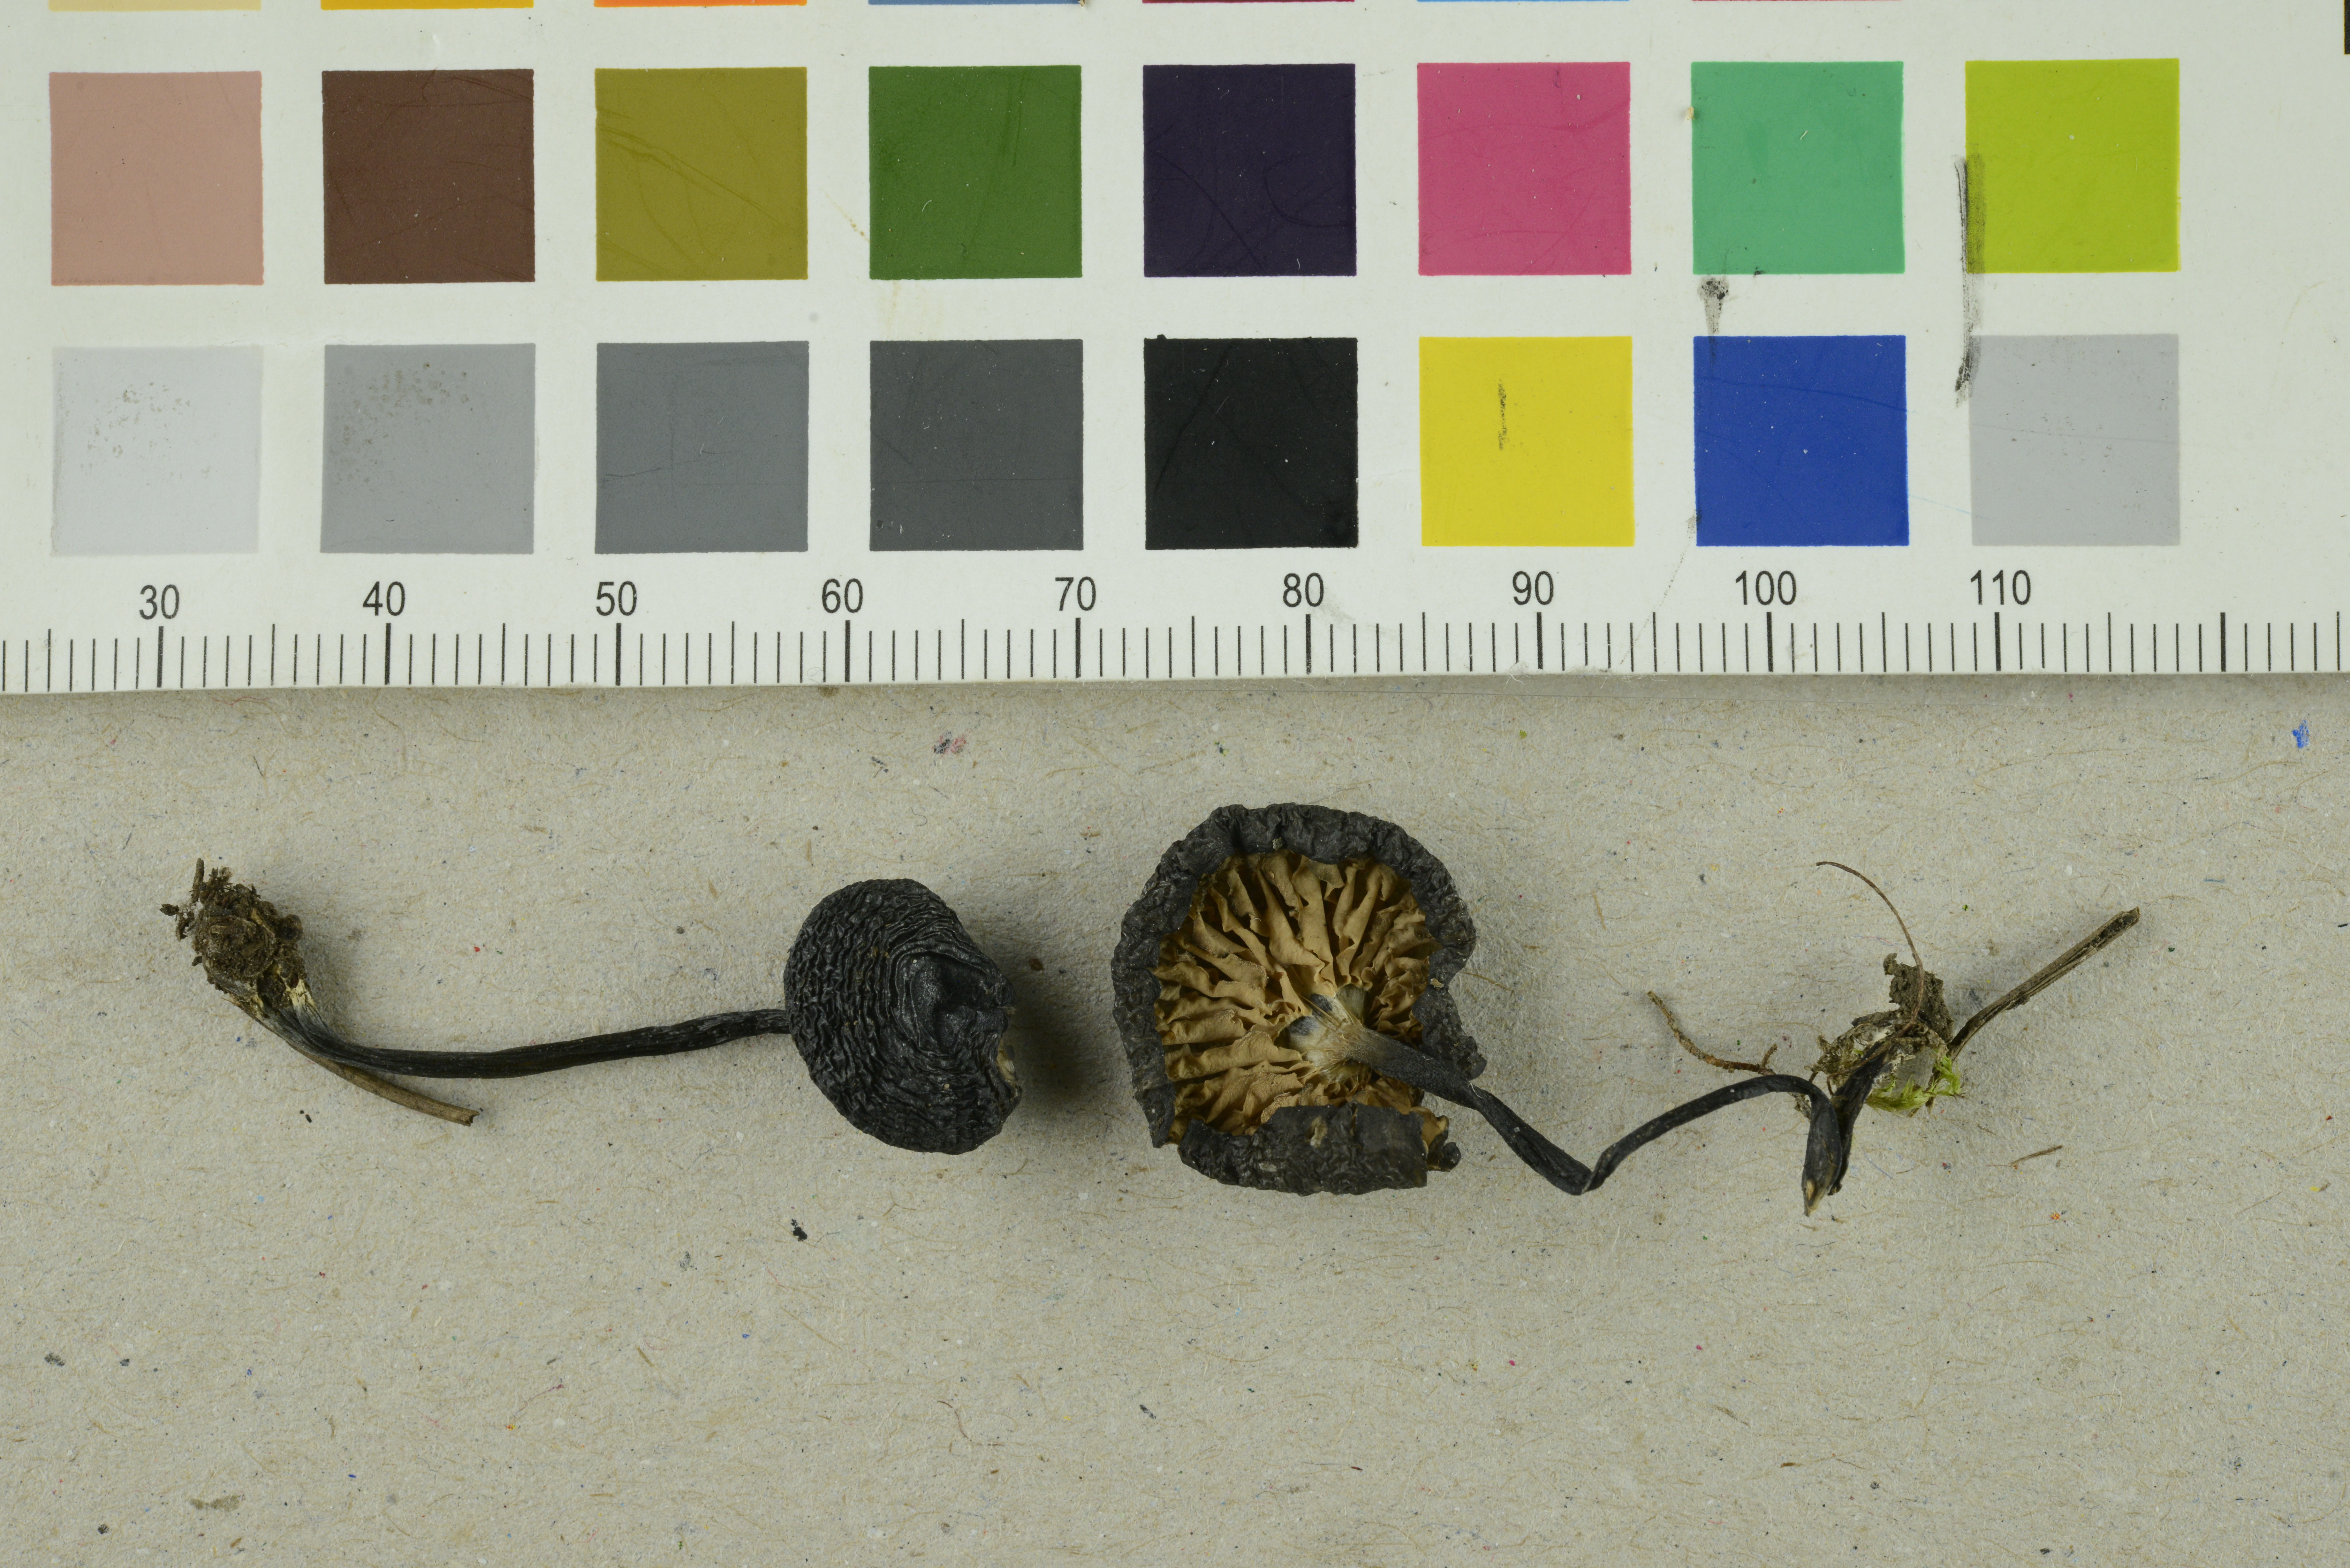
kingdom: Fungi
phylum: Basidiomycota
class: Agaricomycetes
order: Agaricales
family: Entolomataceae
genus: Entoloma
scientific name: Entoloma serrulatum
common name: Blue edge pinkgill
